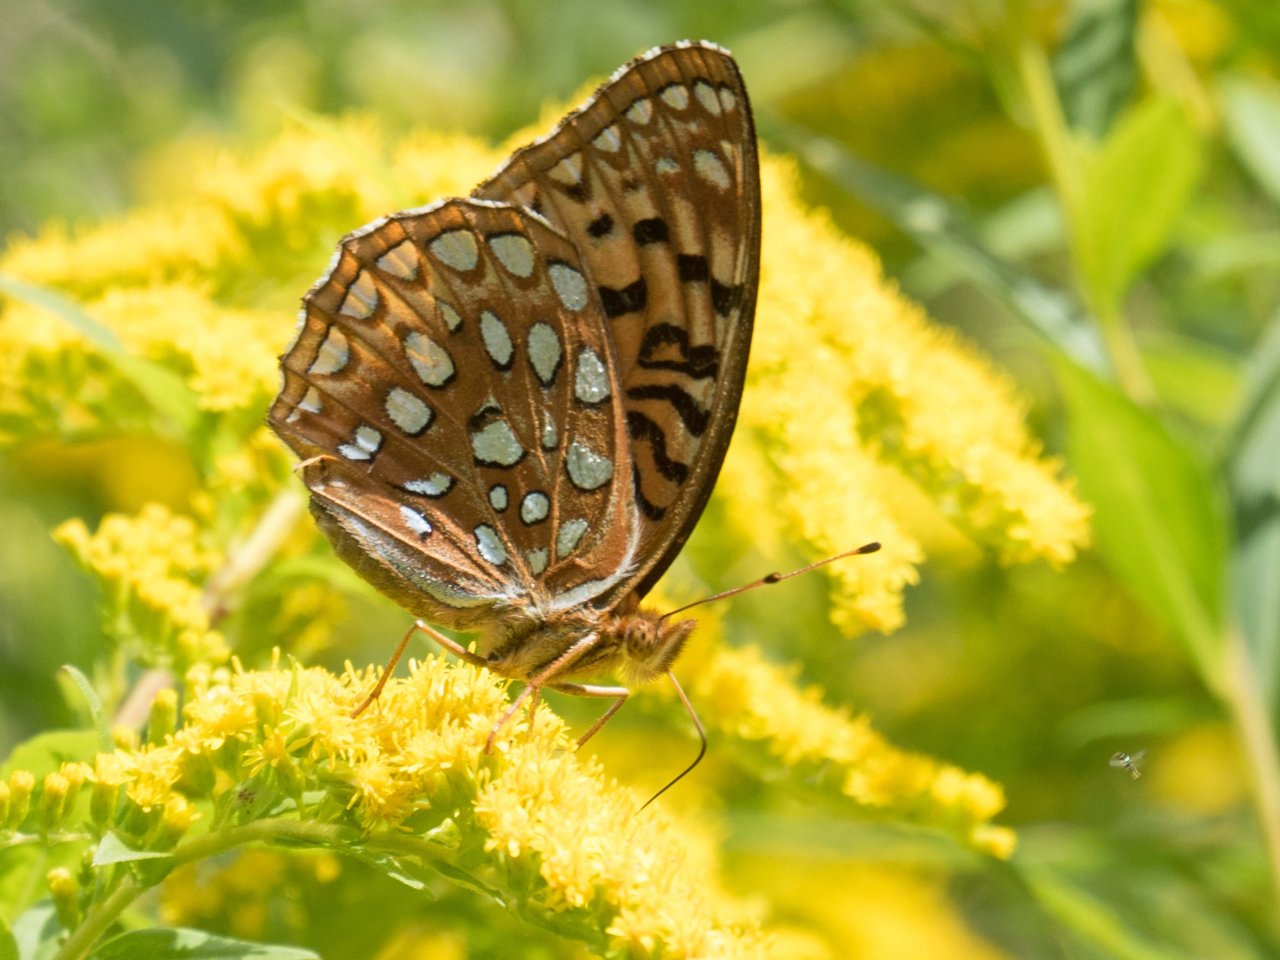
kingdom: Animalia
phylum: Arthropoda
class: Insecta
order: Lepidoptera
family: Nymphalidae
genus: Speyeria
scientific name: Speyeria aphrodite
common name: Aphrodite Fritillary
